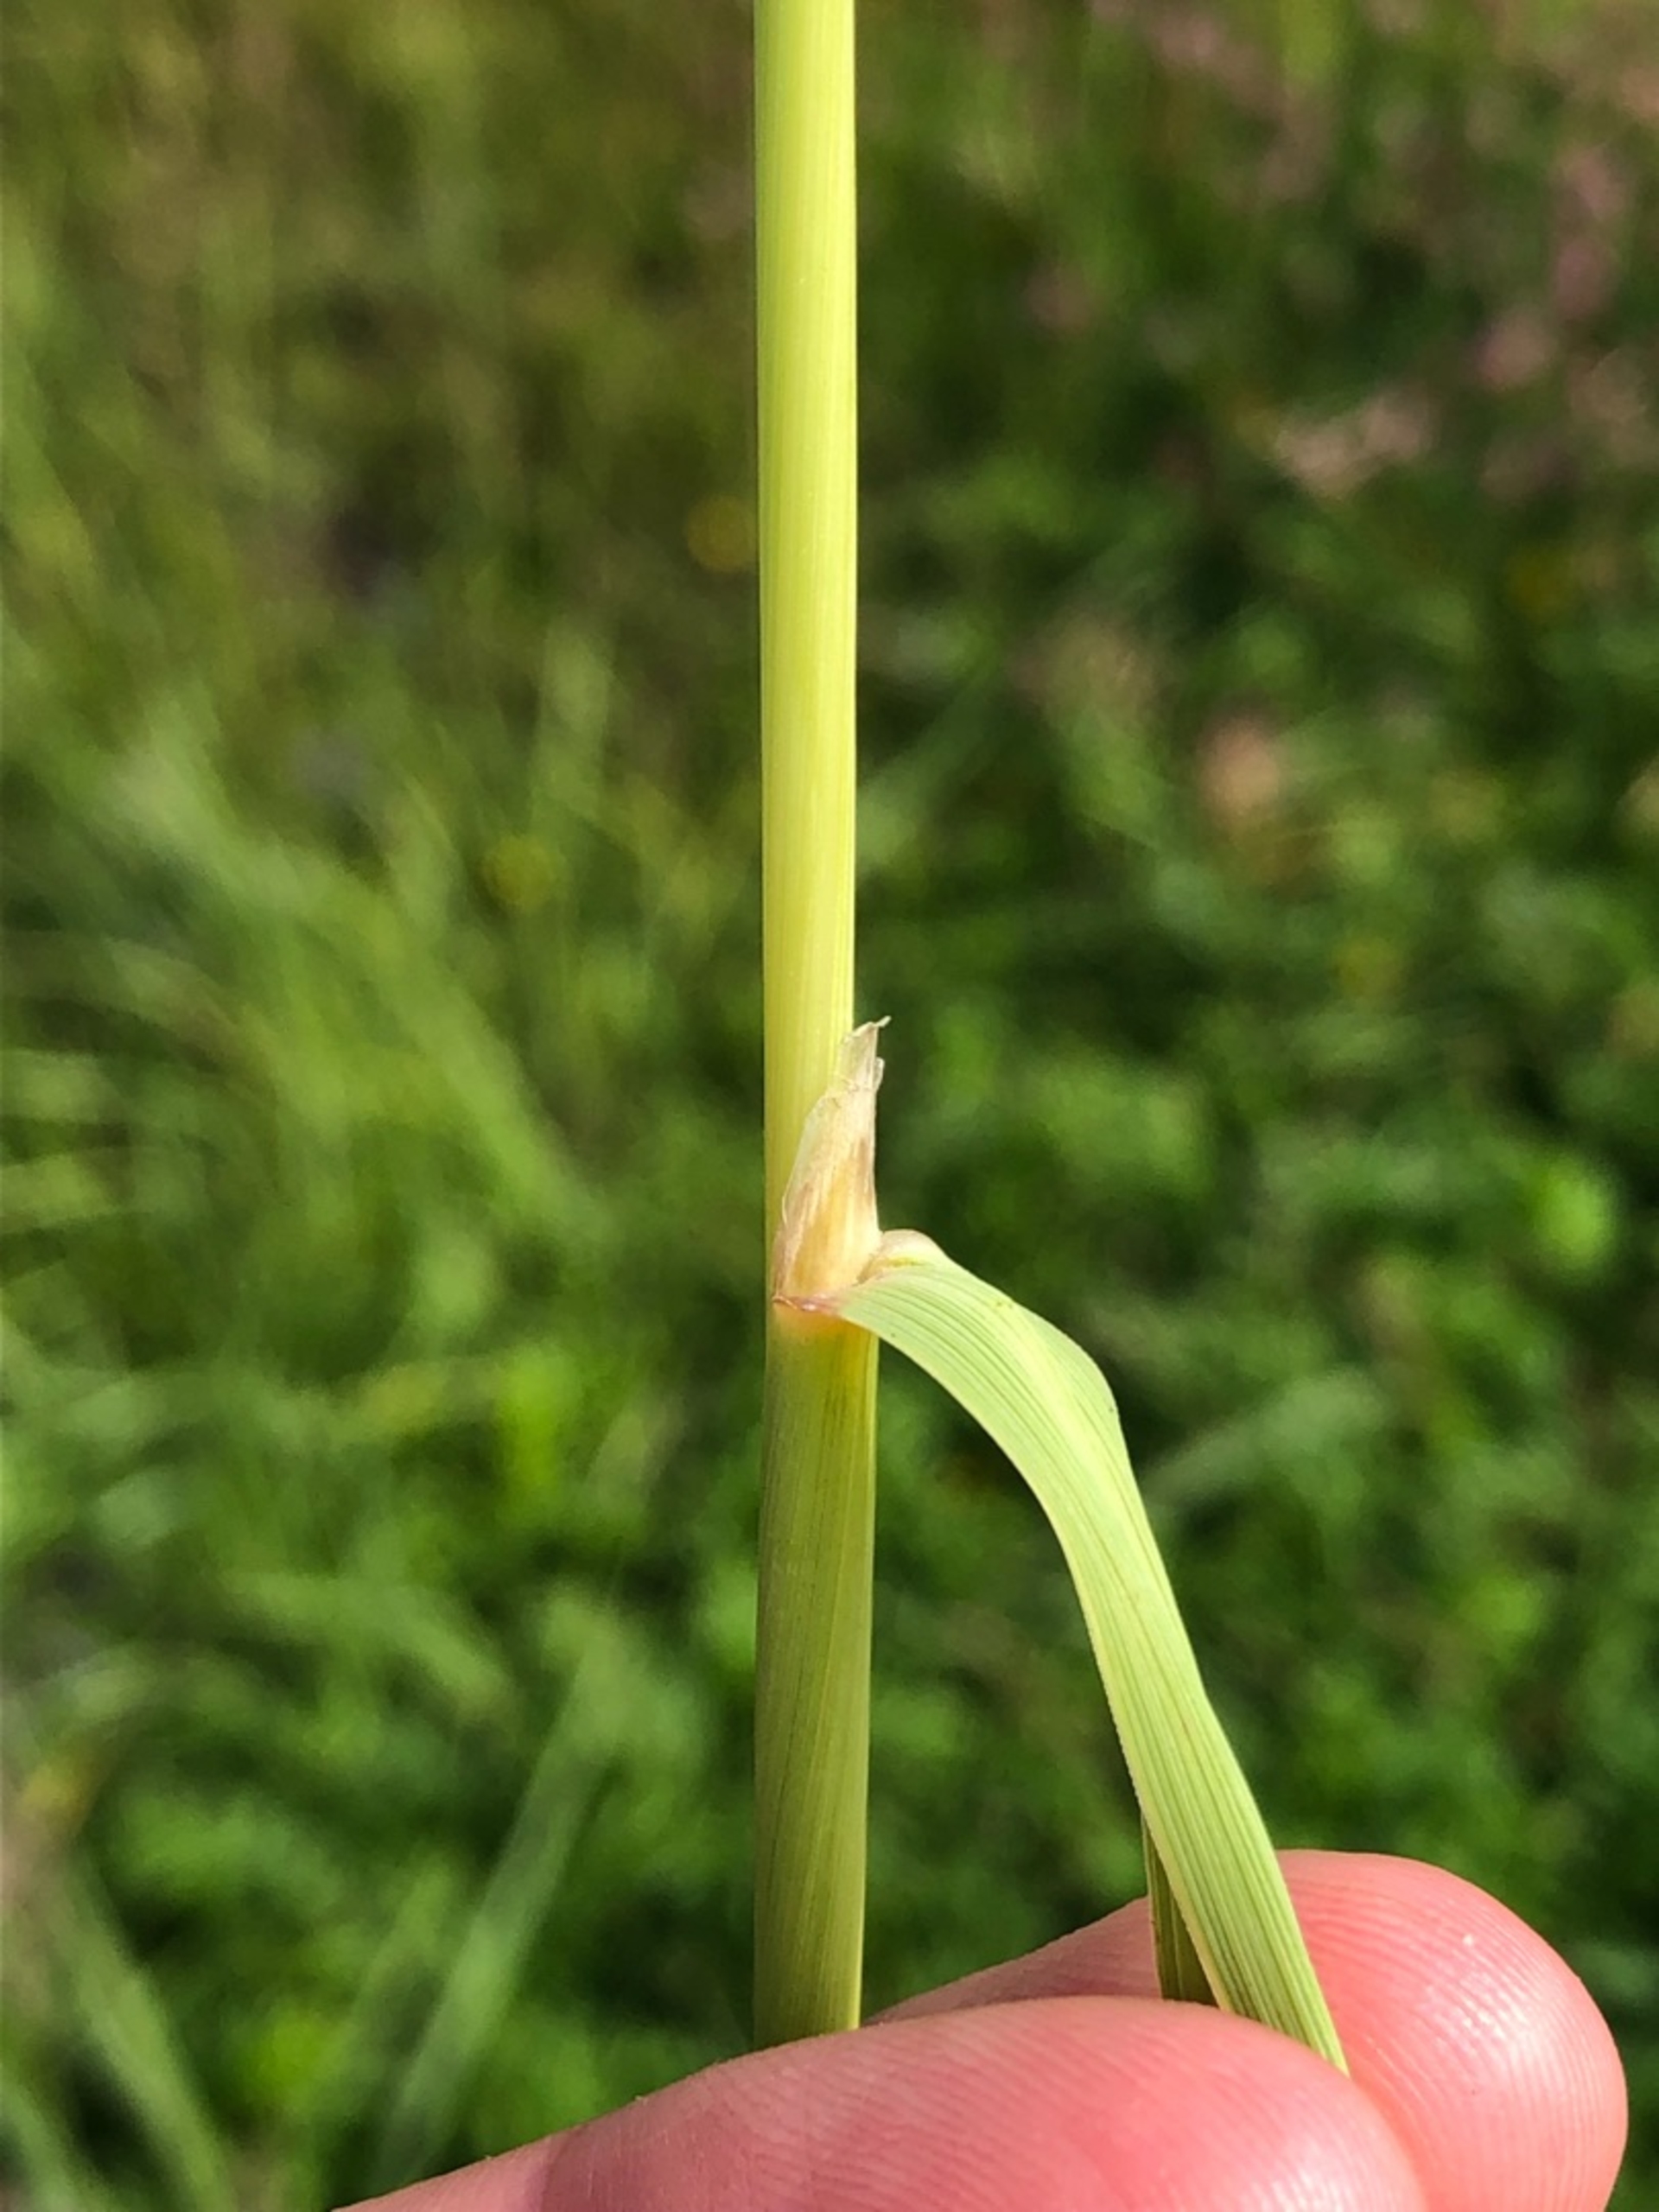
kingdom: Plantae
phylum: Tracheophyta
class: Liliopsida
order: Poales
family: Poaceae
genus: Calamagrostis
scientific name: Calamagrostis epigejos
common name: Bjerg-rørhvene
